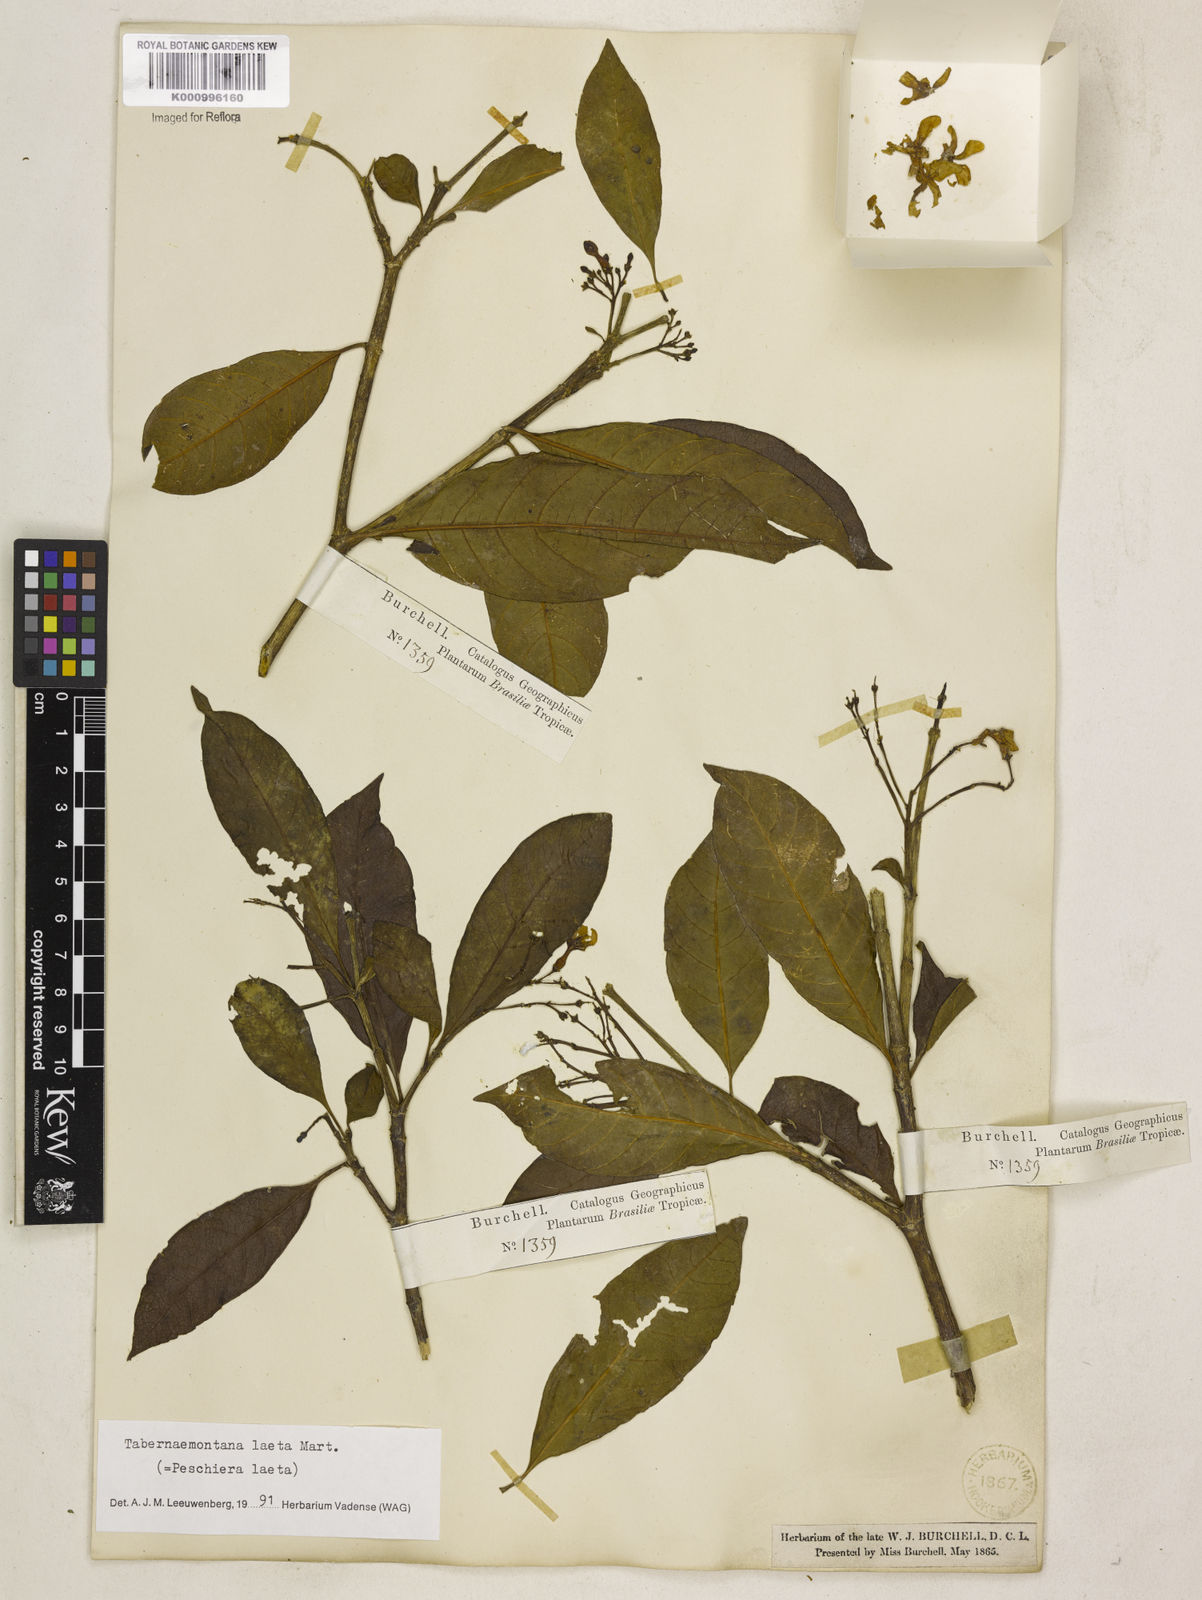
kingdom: Plantae
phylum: Tracheophyta
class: Magnoliopsida
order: Gentianales
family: Apocynaceae
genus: Tabernaemontana
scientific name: Tabernaemontana laeta
